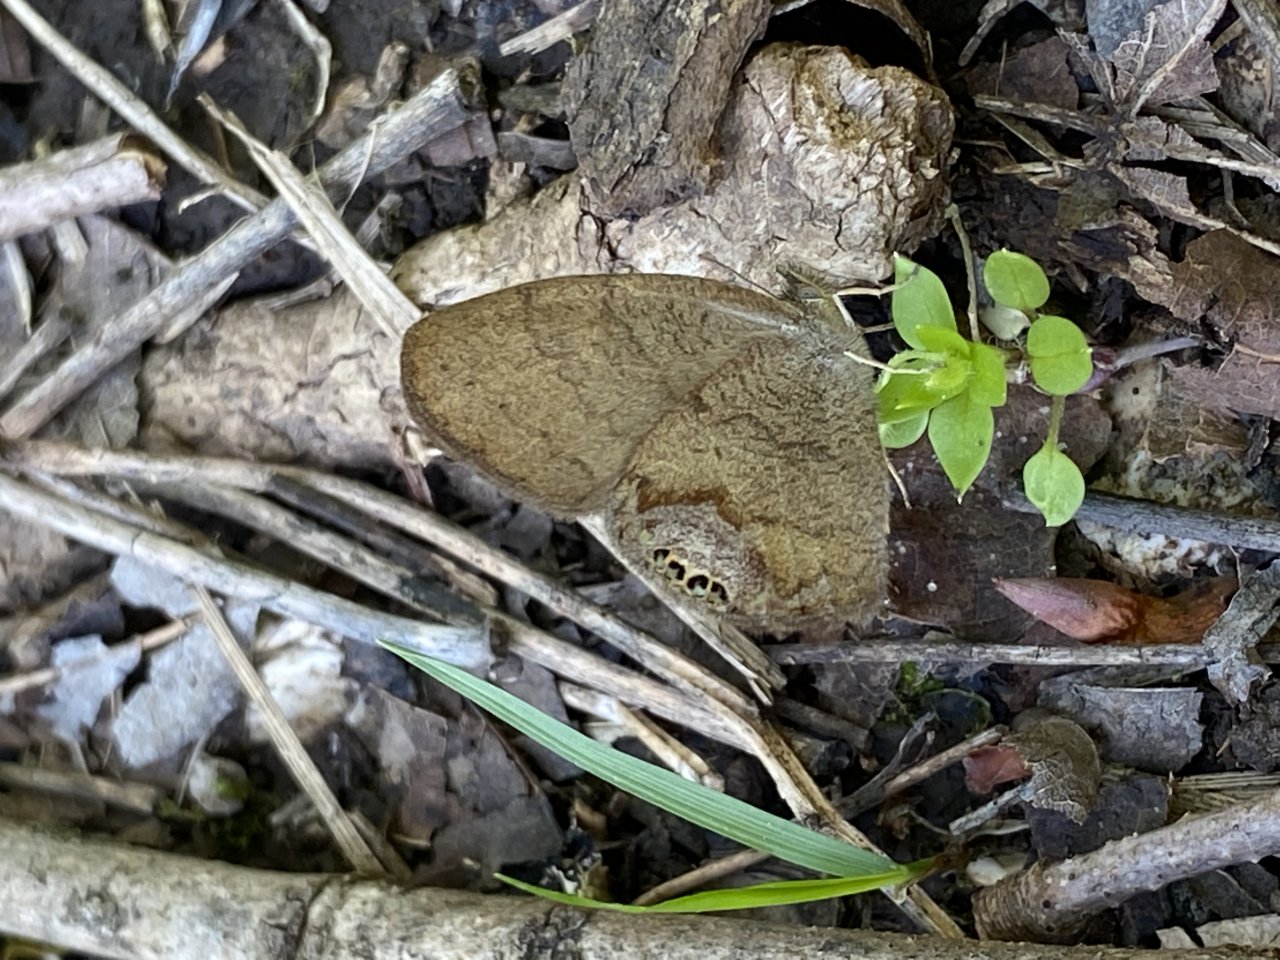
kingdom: Animalia
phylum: Arthropoda
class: Insecta
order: Lepidoptera
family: Nymphalidae
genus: Euptychia
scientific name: Euptychia cornelius
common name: Gemmed Satyr
